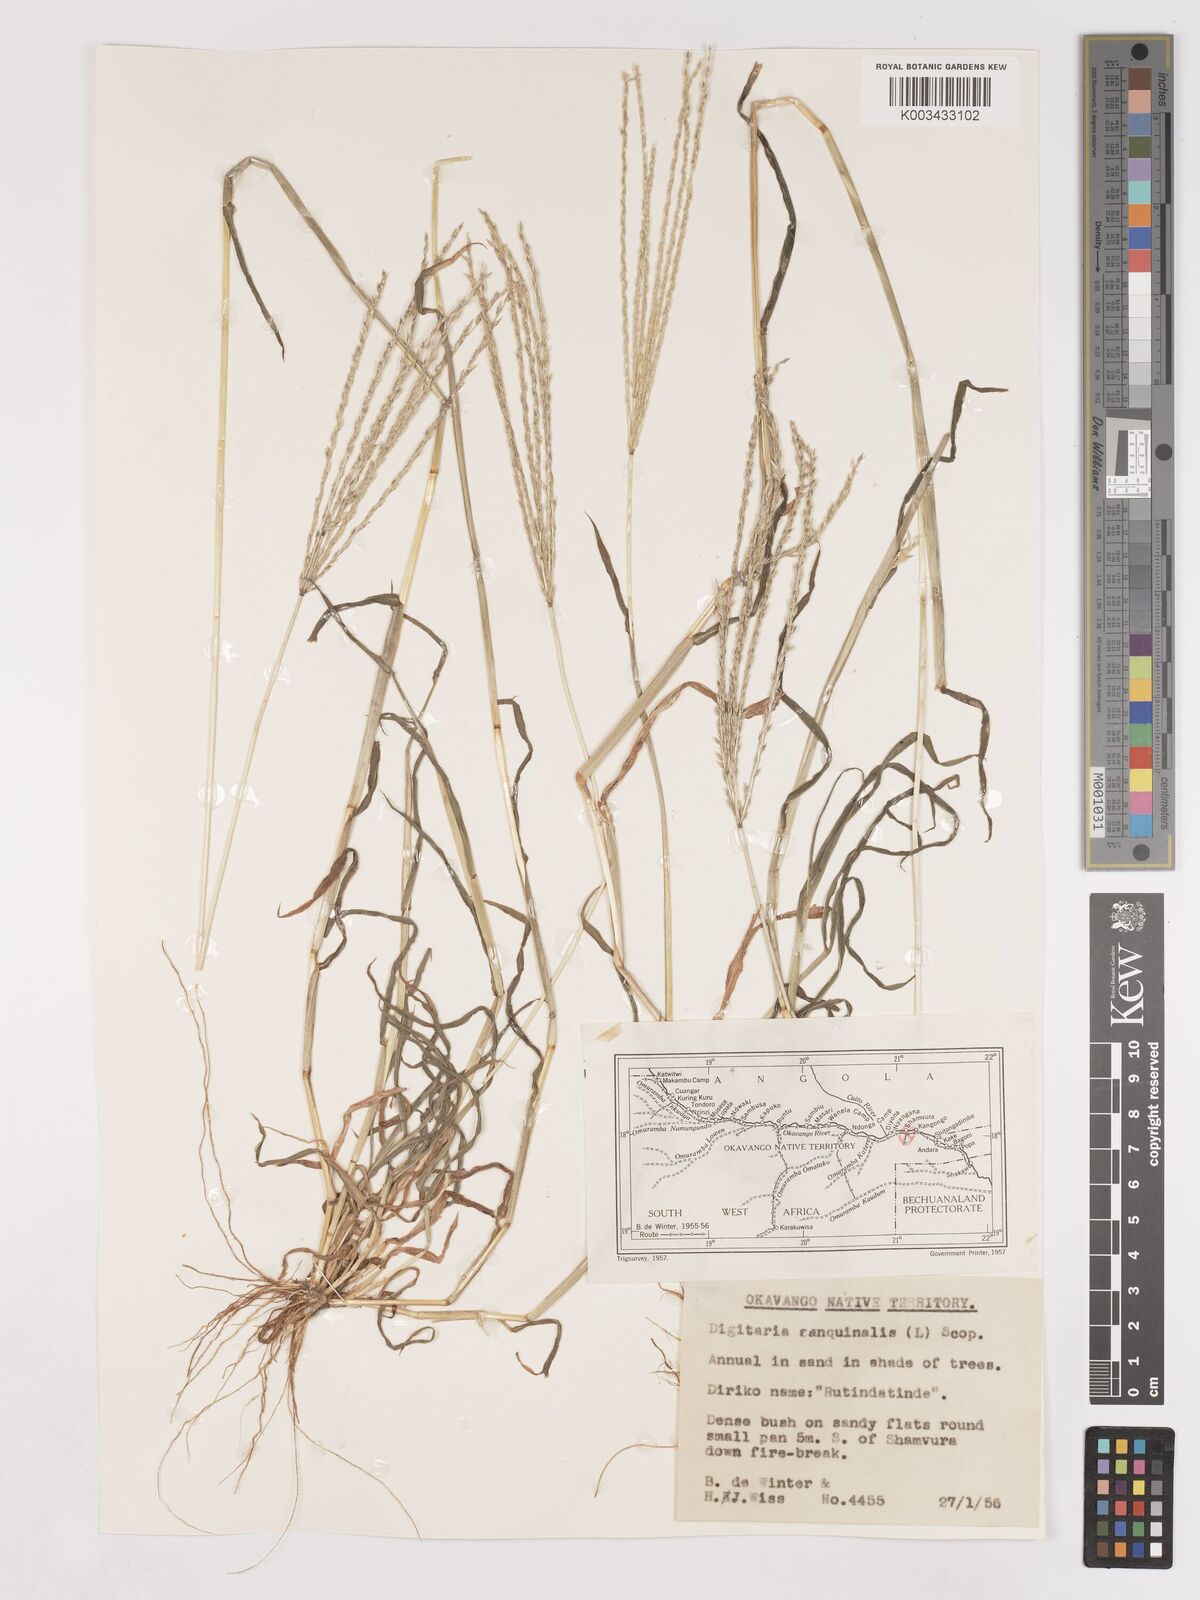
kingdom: Plantae
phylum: Tracheophyta
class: Liliopsida
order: Poales
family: Poaceae
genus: Digitaria
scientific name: Digitaria milanjiana
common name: Madagascar crabgrass
